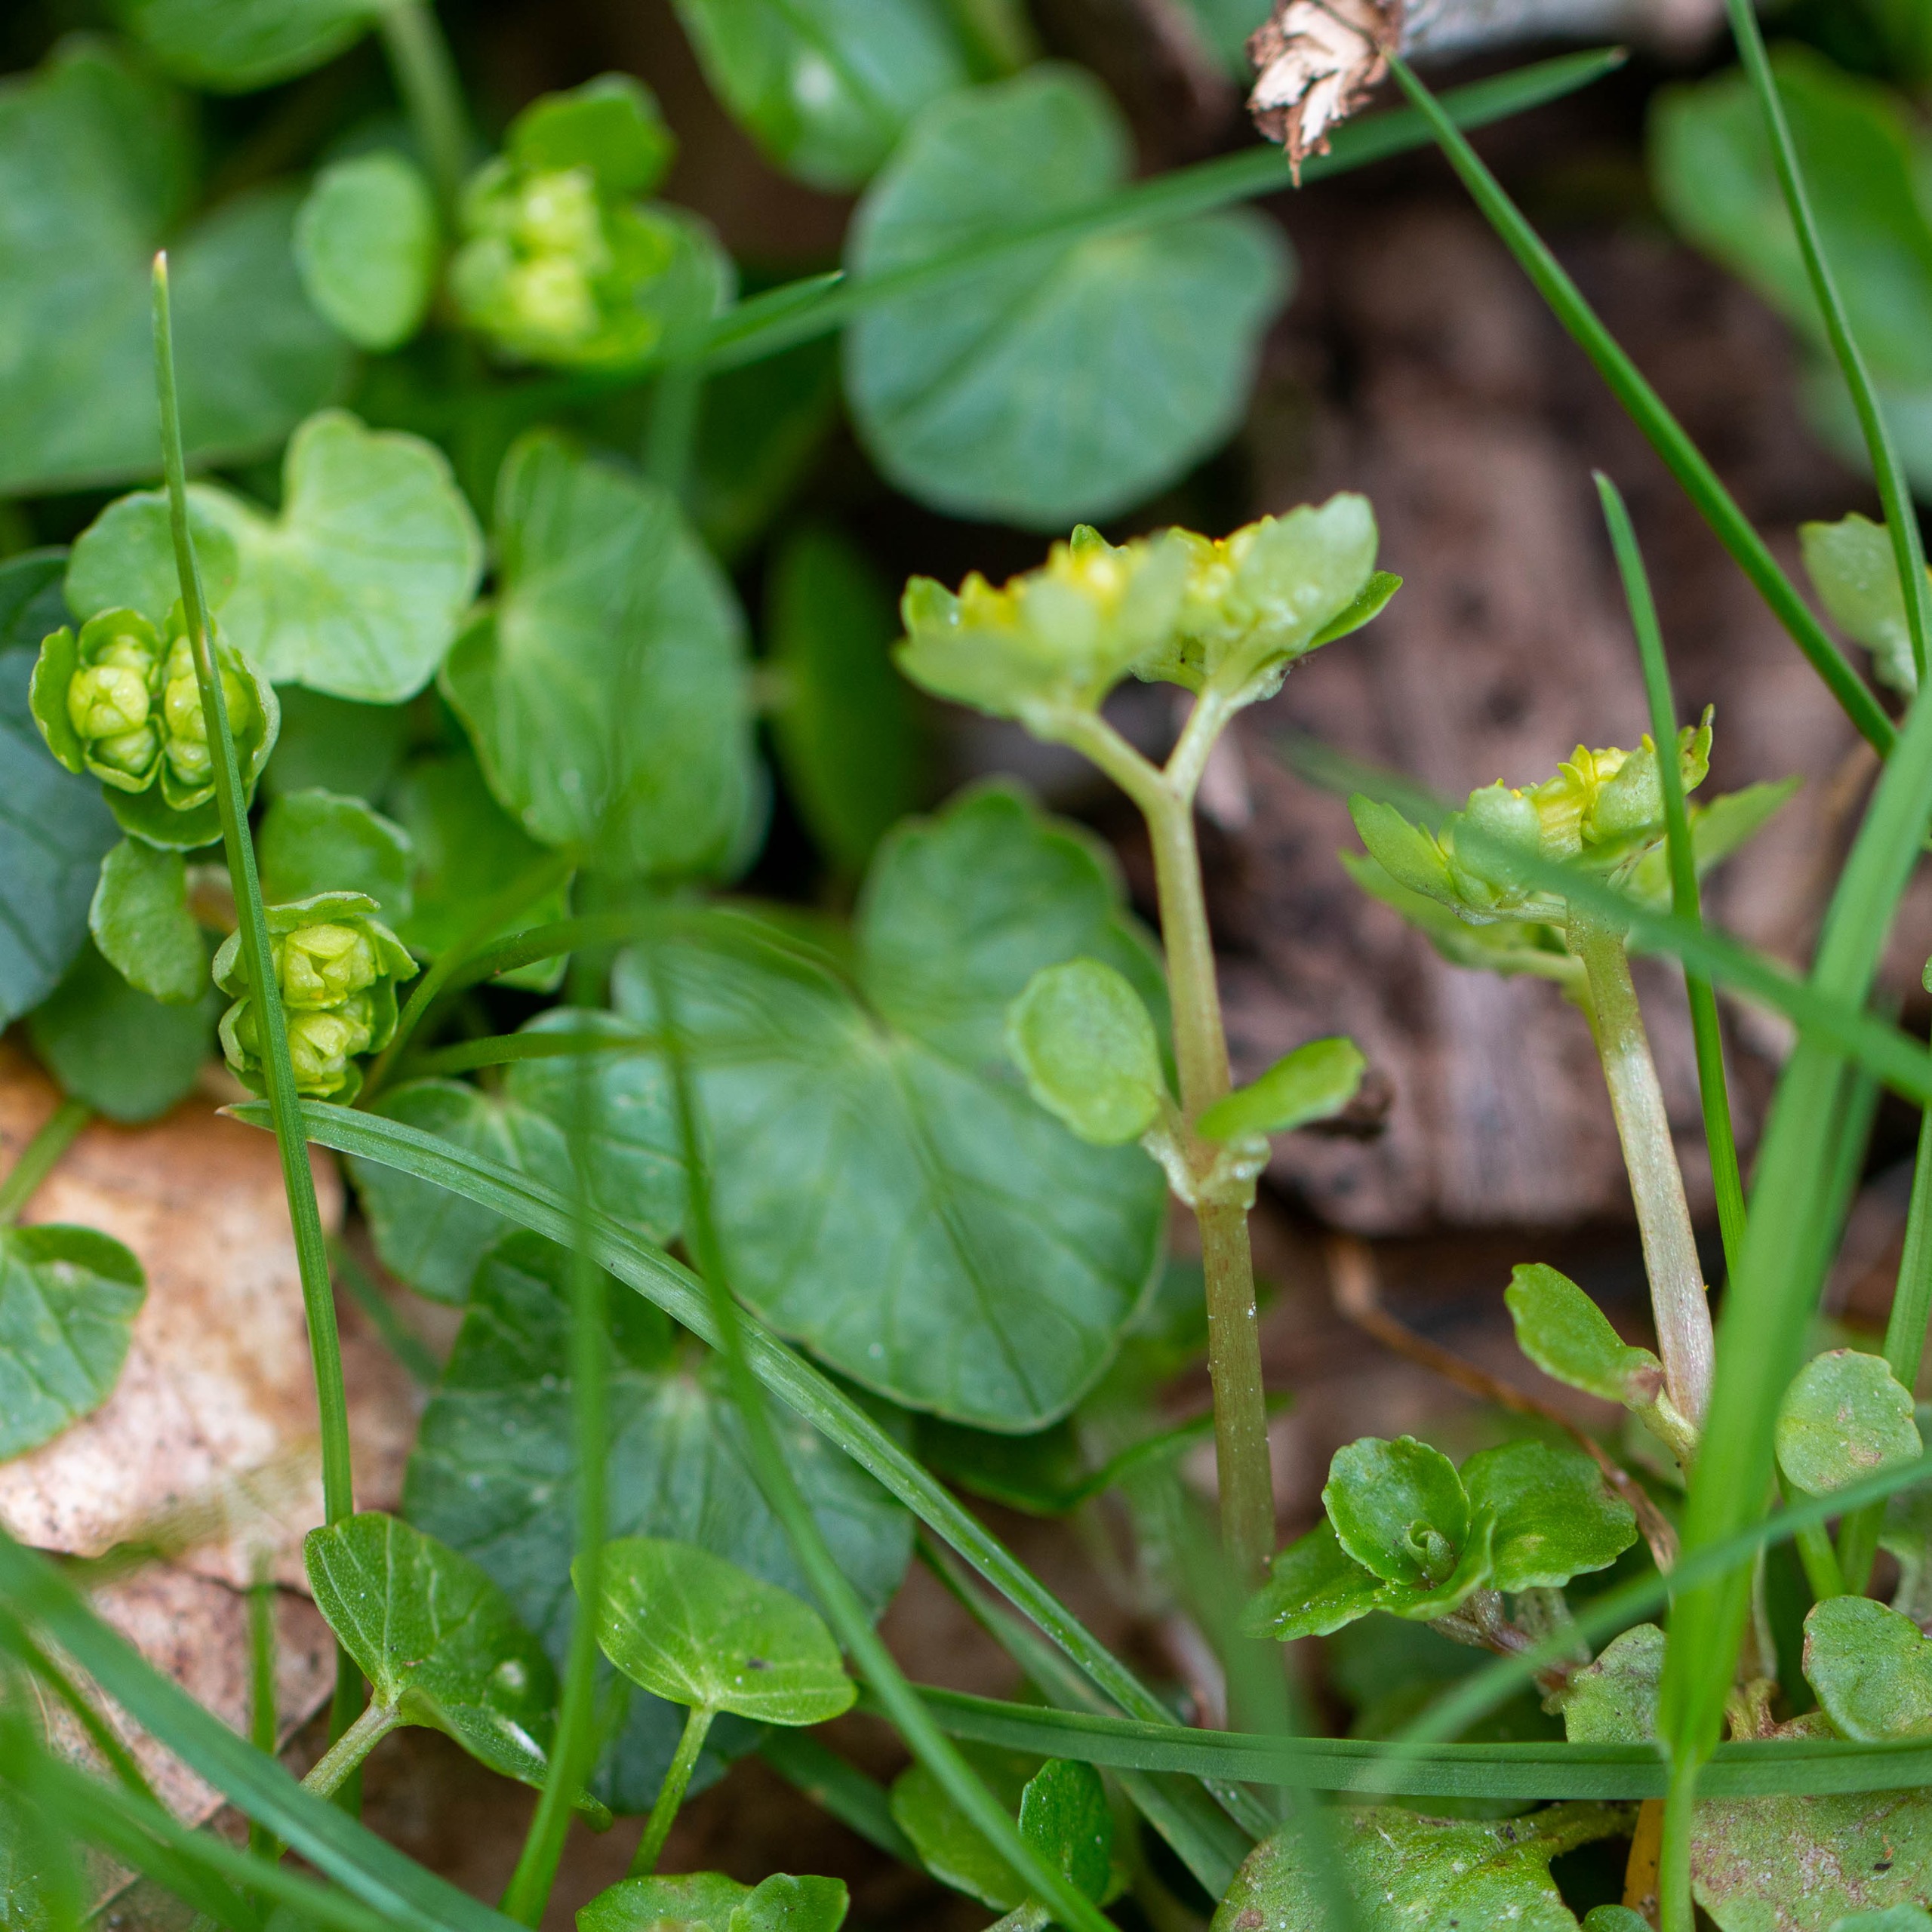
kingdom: Plantae
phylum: Tracheophyta
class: Magnoliopsida
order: Saxifragales
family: Saxifragaceae
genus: Chrysosplenium
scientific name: Chrysosplenium oppositifolium
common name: Småbladet milturt
